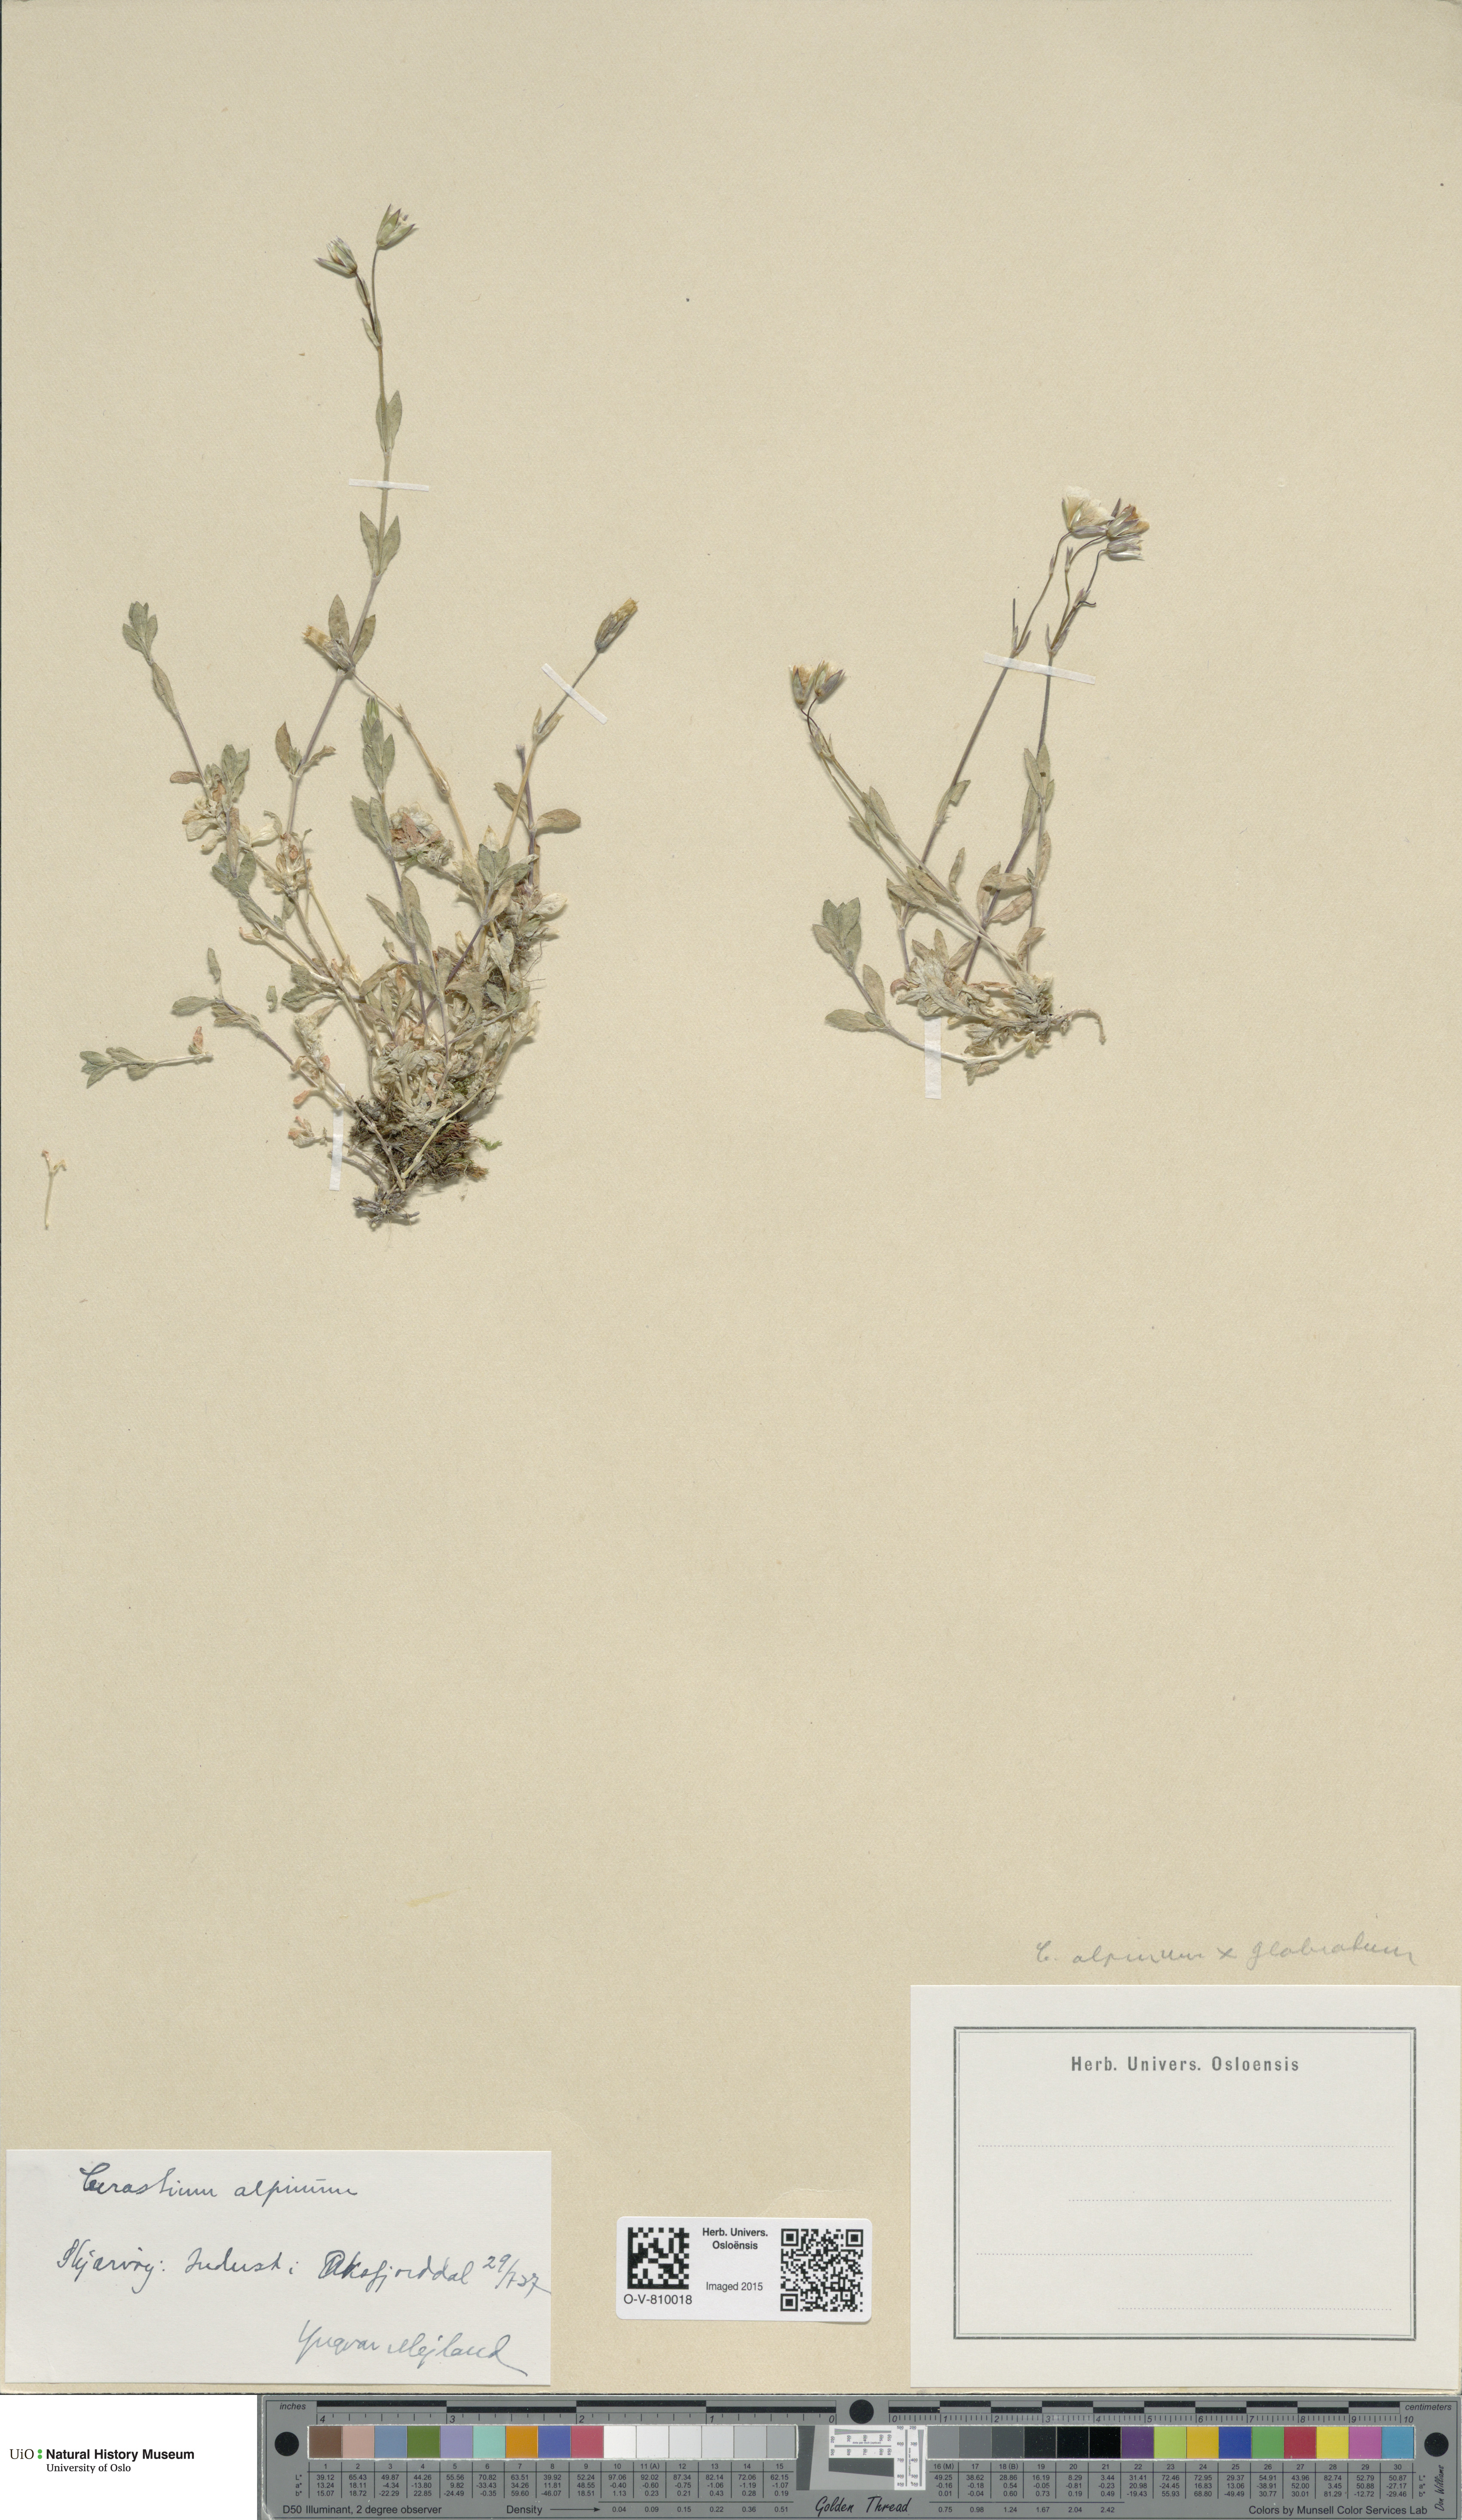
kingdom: Plantae
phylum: Tracheophyta
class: Magnoliopsida
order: Caryophyllales
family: Caryophyllaceae
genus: Cerastium
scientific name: Cerastium
